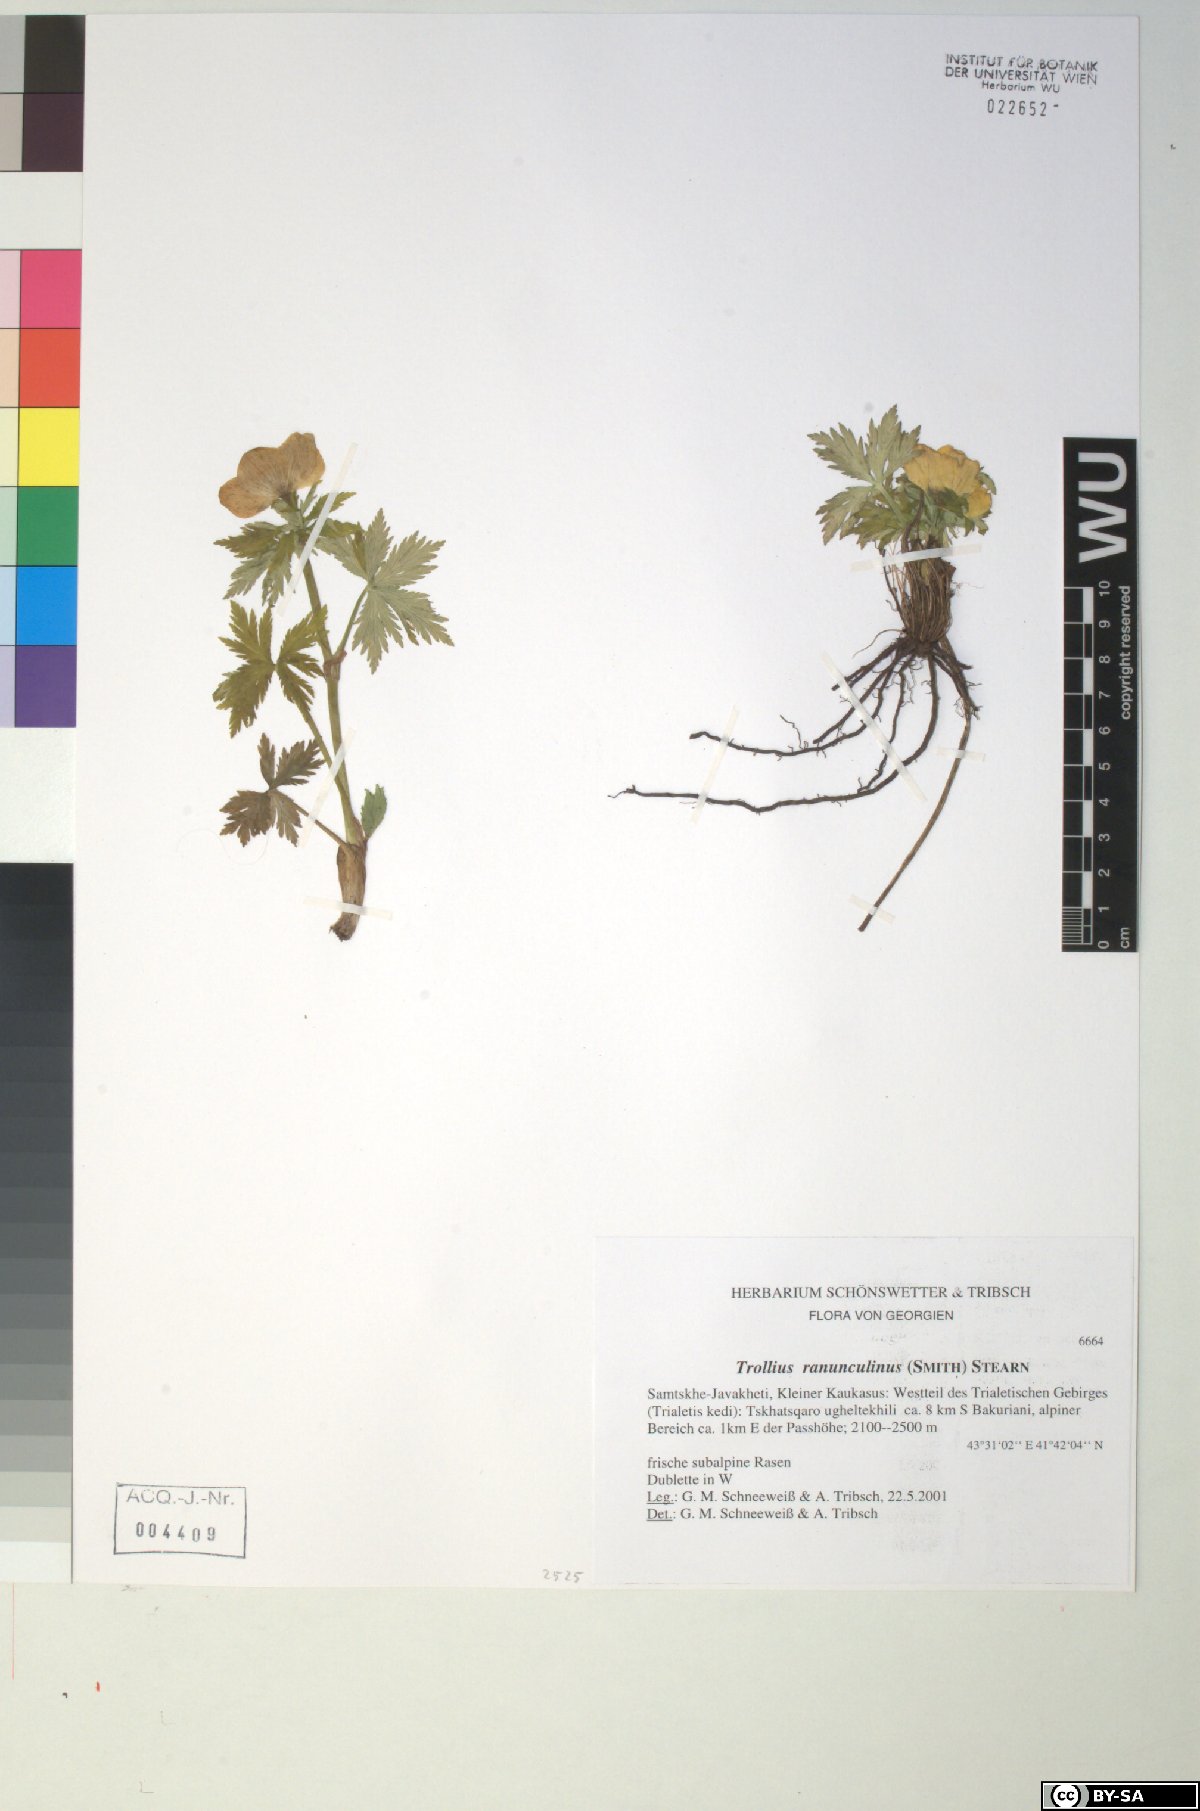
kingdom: Plantae
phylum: Tracheophyta
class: Magnoliopsida
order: Ranunculales
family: Ranunculaceae
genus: Trollius
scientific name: Trollius ranunculinus
